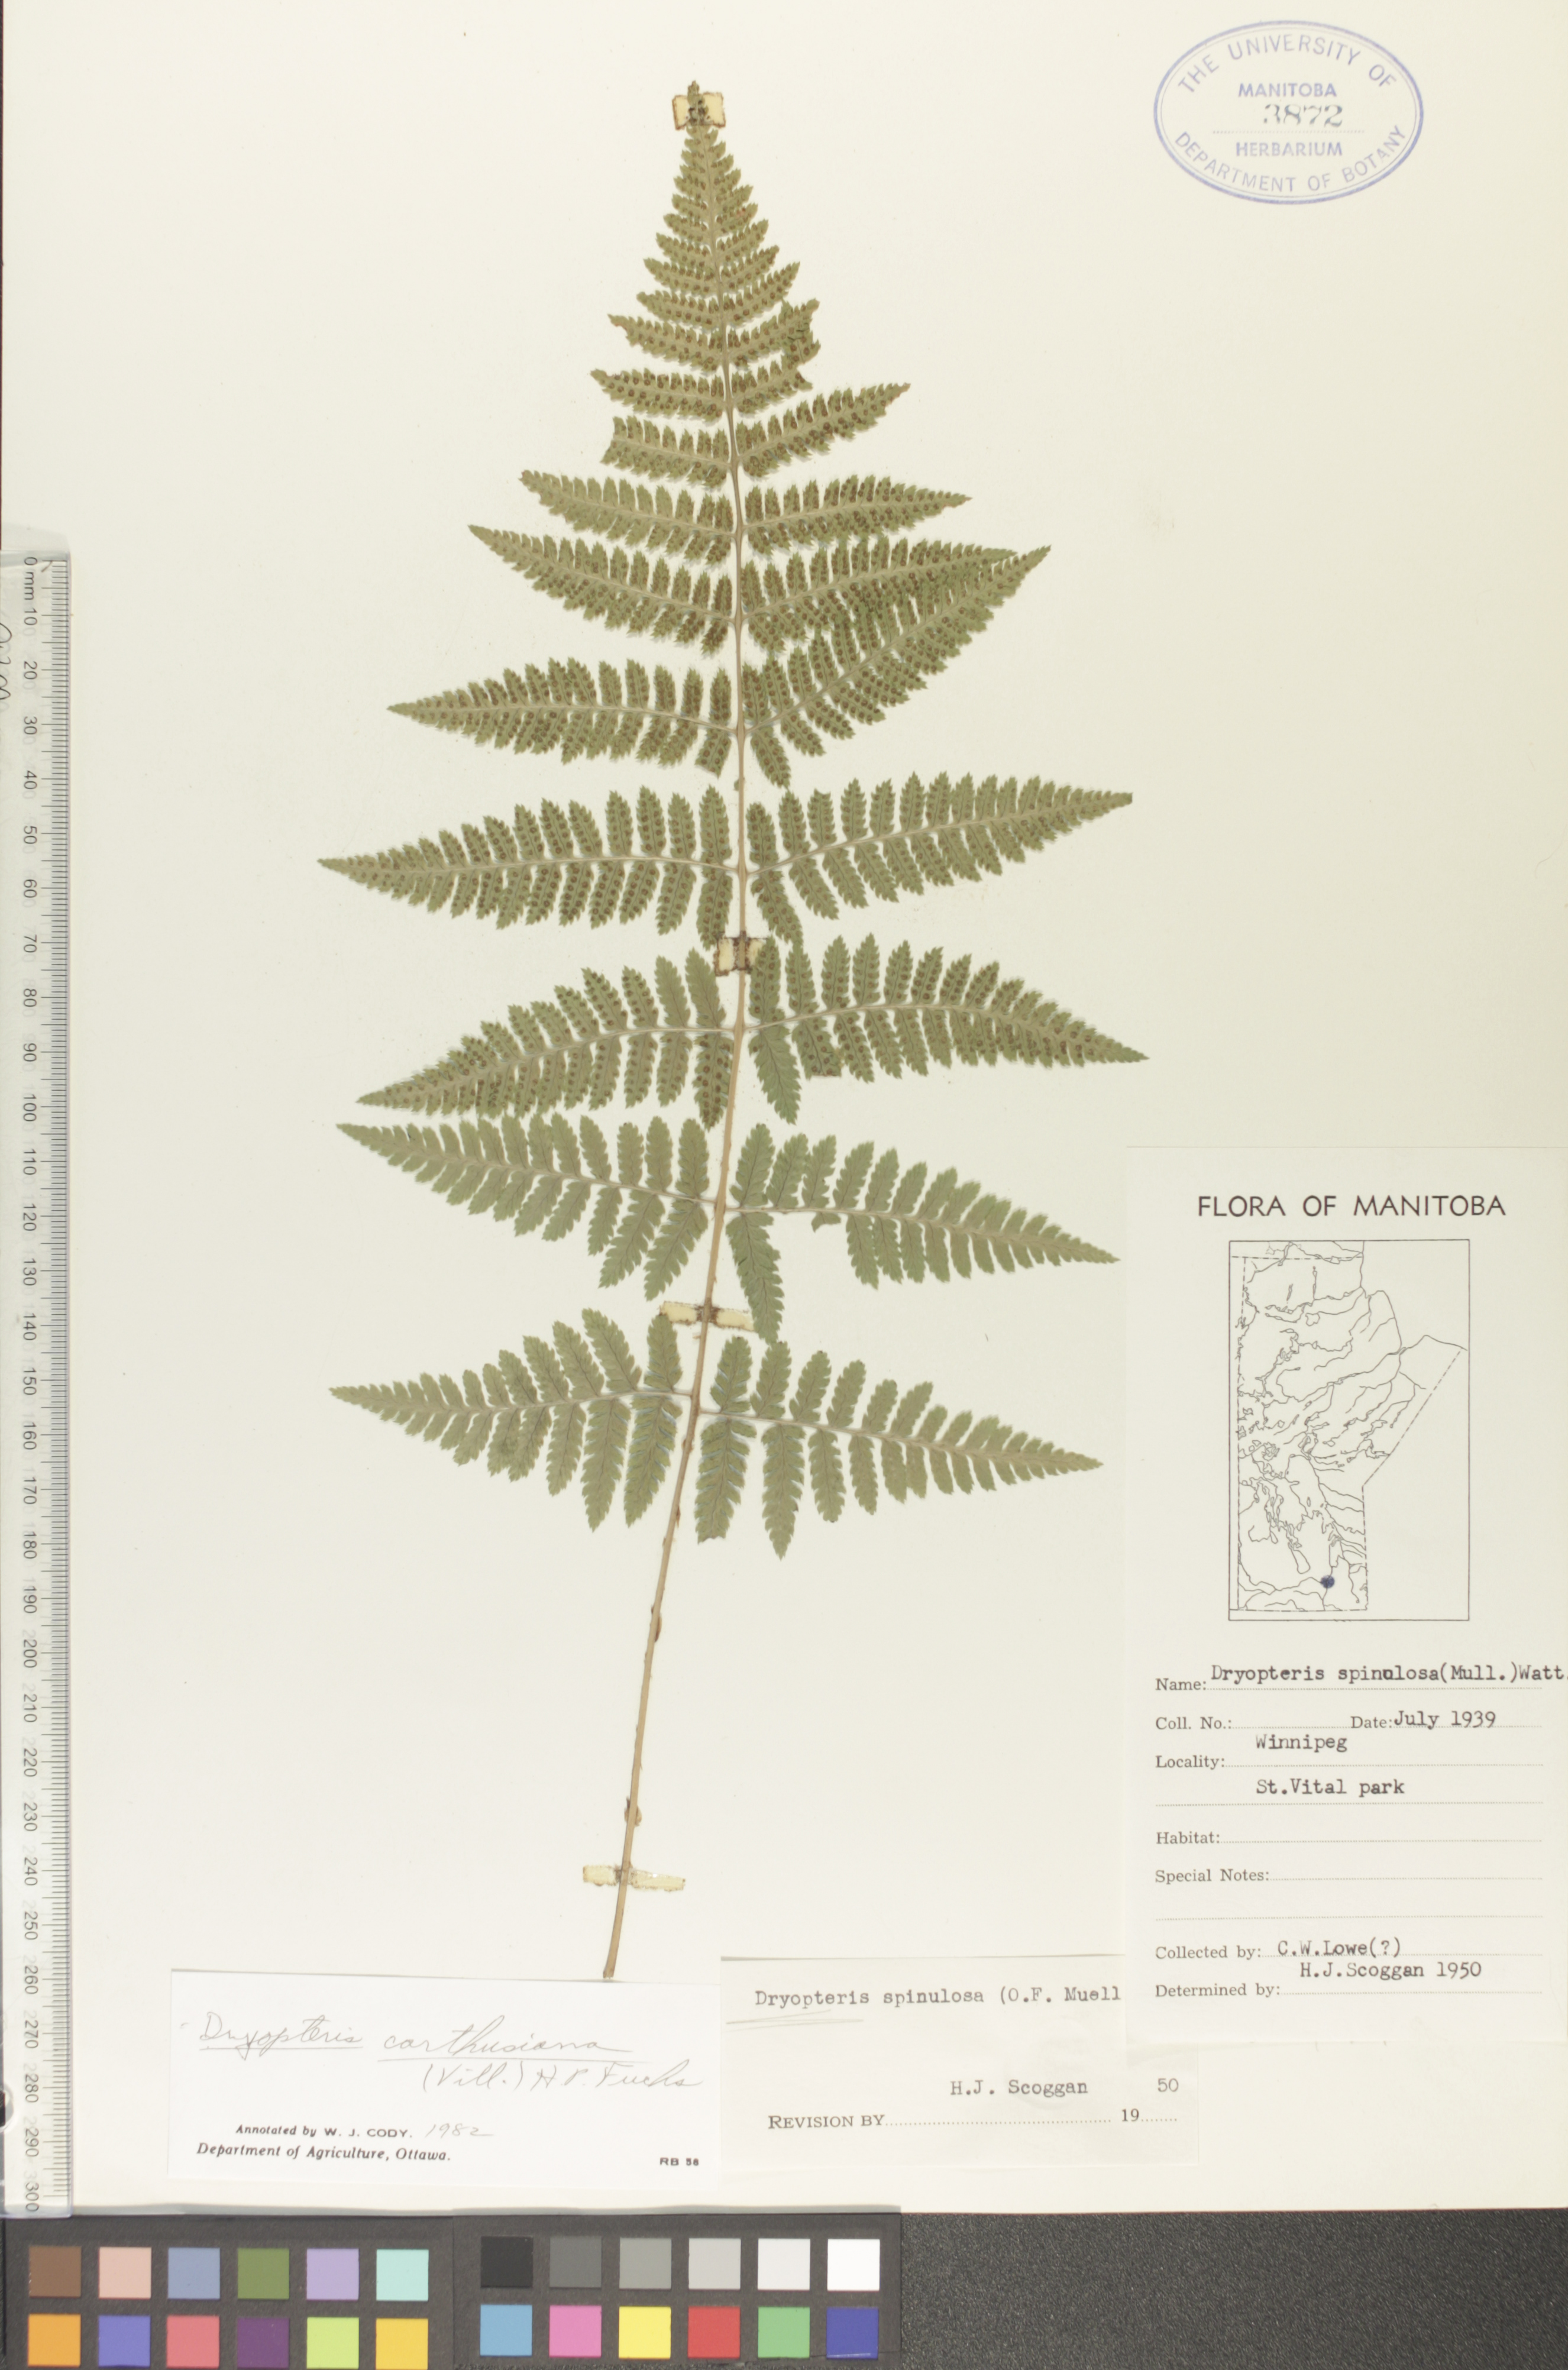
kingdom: Plantae
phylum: Tracheophyta
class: Polypodiopsida
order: Polypodiales
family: Dryopteridaceae
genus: Dryopteris
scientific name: Dryopteris carthusiana
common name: Narrow buckler-fern
